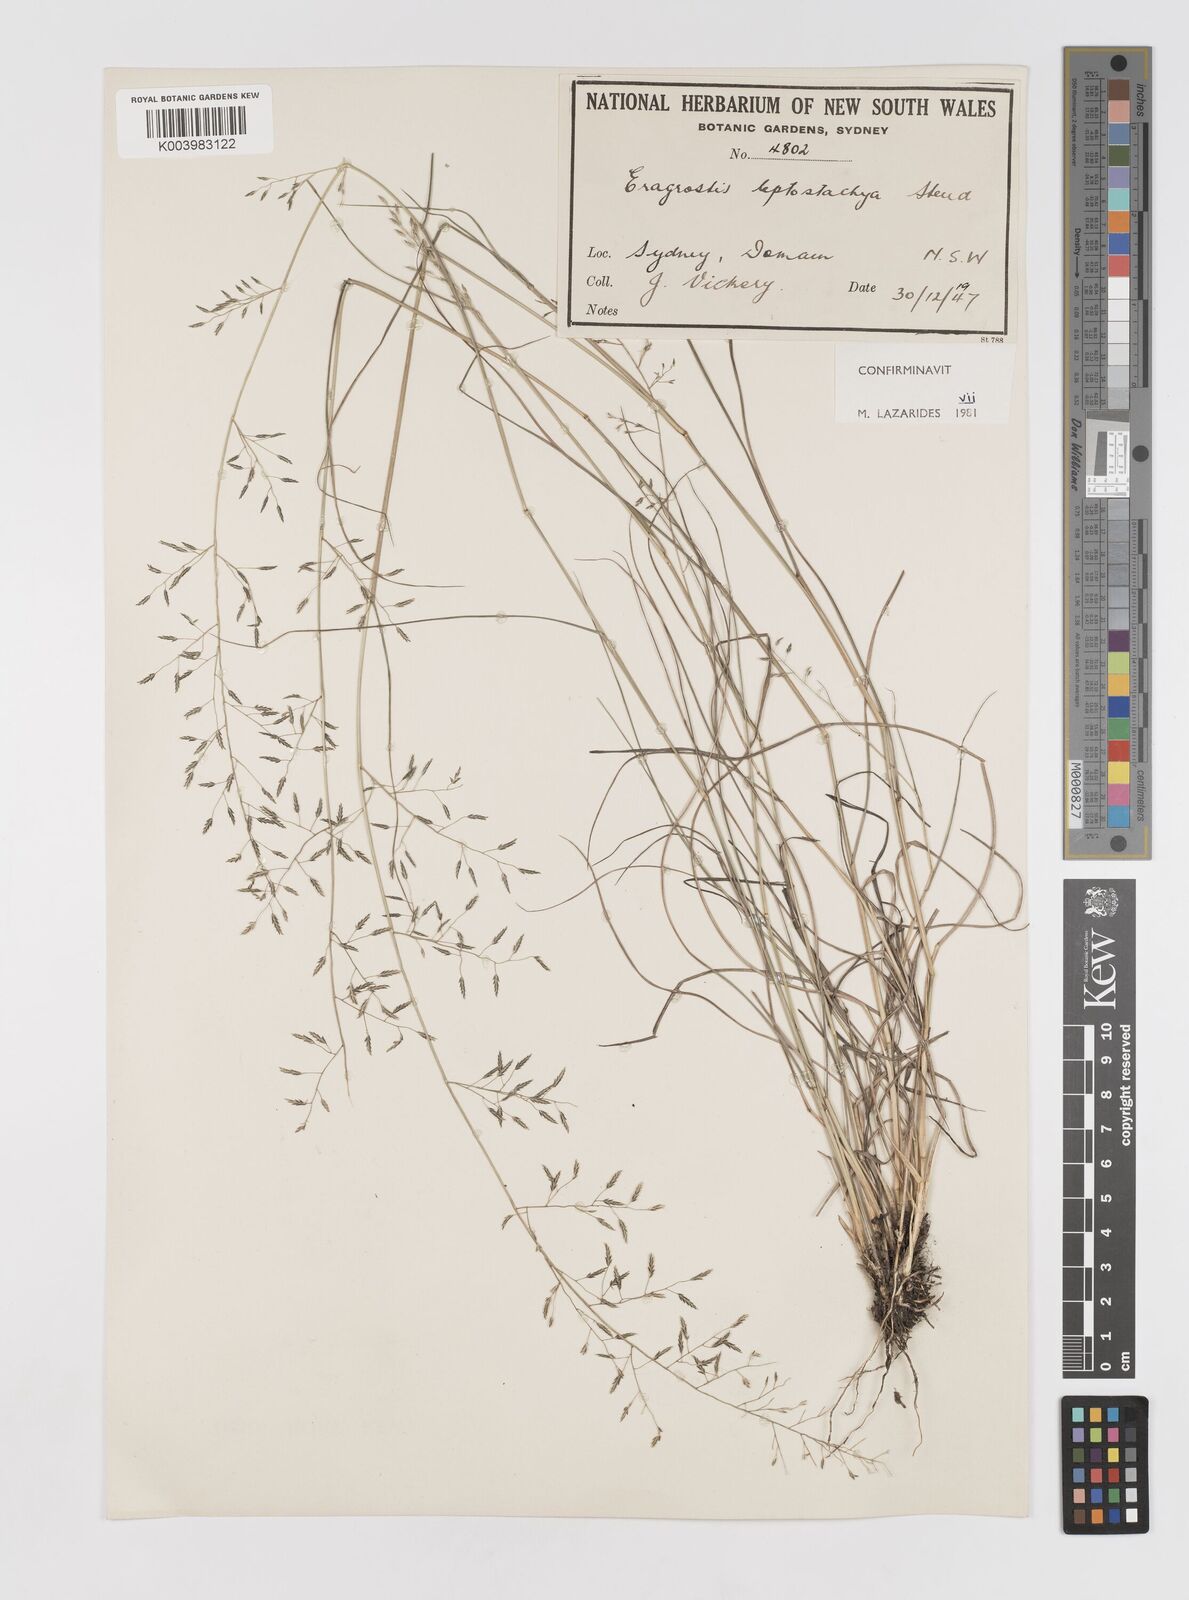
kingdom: Plantae
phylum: Tracheophyta
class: Liliopsida
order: Poales
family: Poaceae
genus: Eragrostis
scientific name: Eragrostis leptostachya
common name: Australian lovegrass
